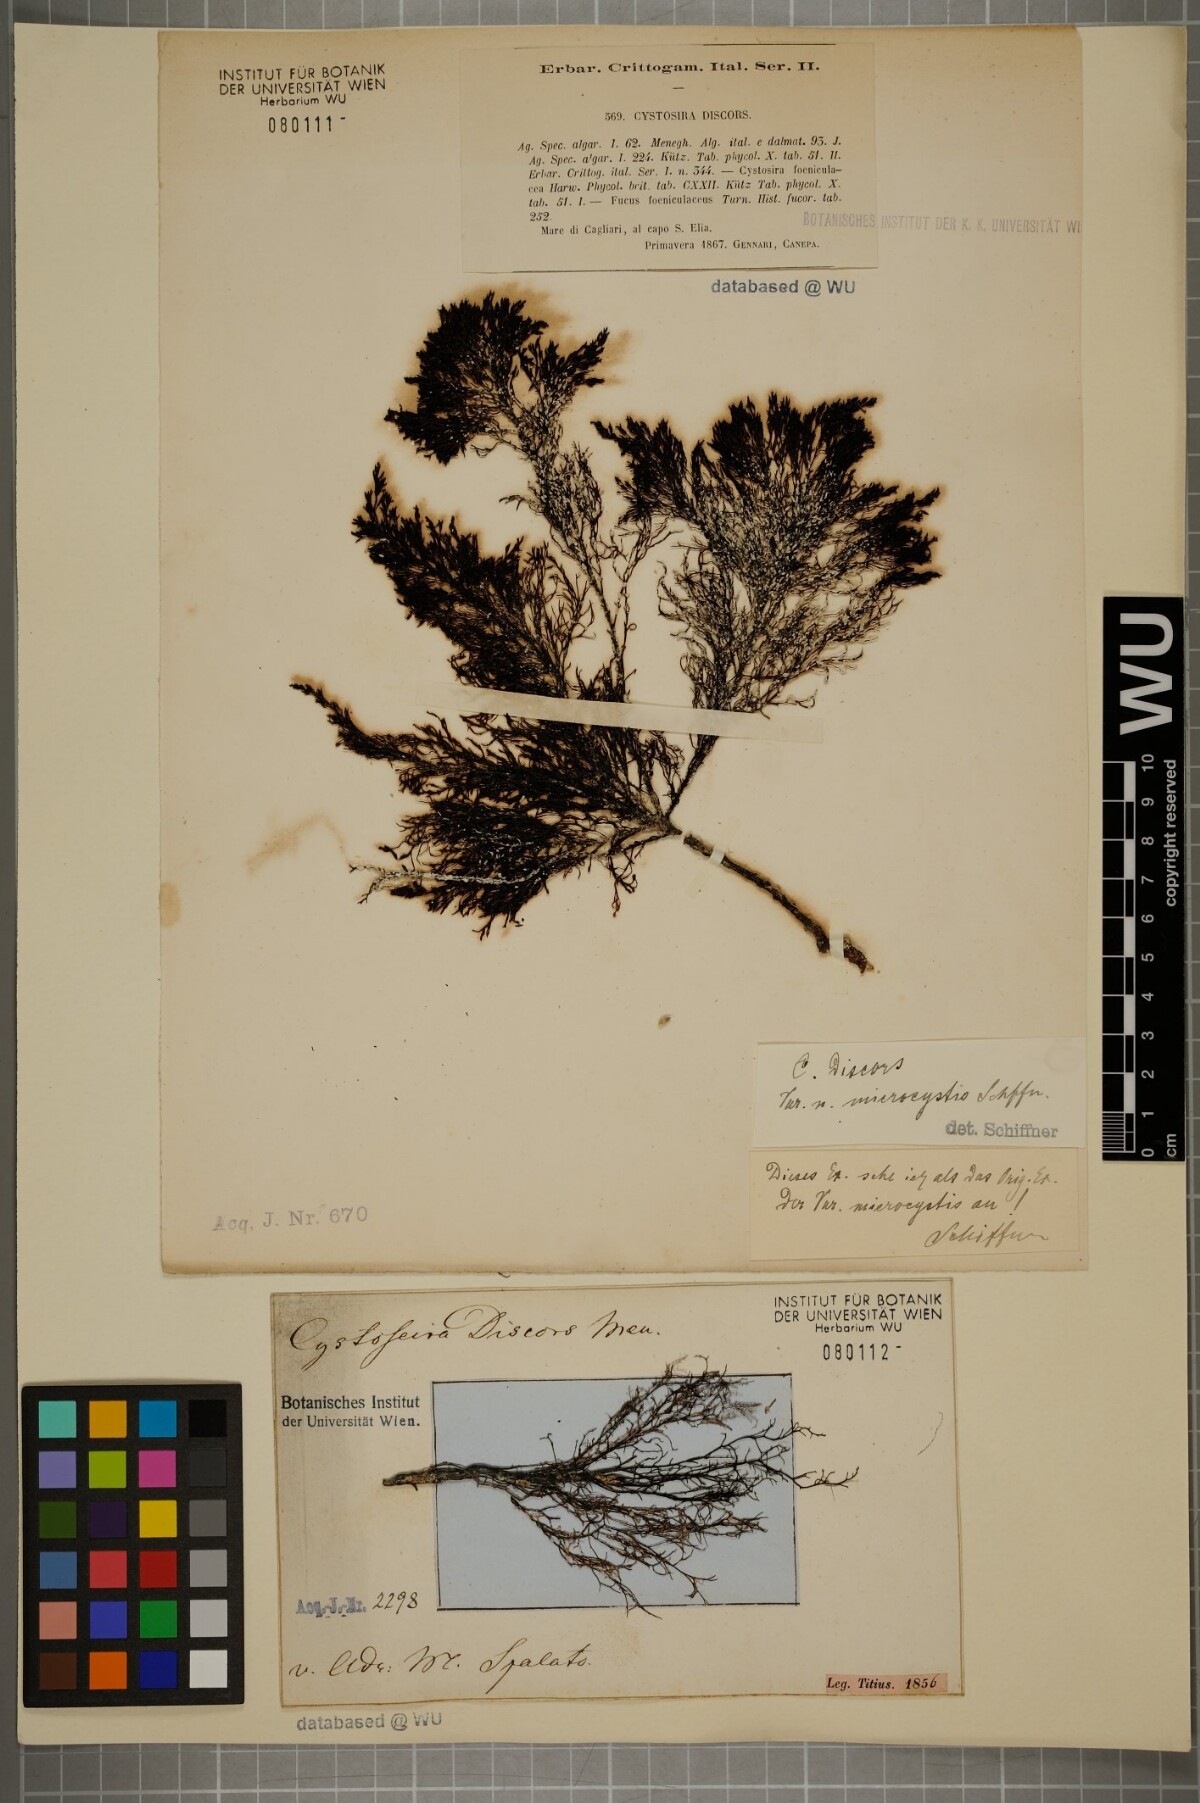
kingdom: Chromista
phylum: Ochrophyta
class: Phaeophyceae
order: Fucales
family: Sargassaceae
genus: Cystoseira
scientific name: Cystoseira foeniculacea
